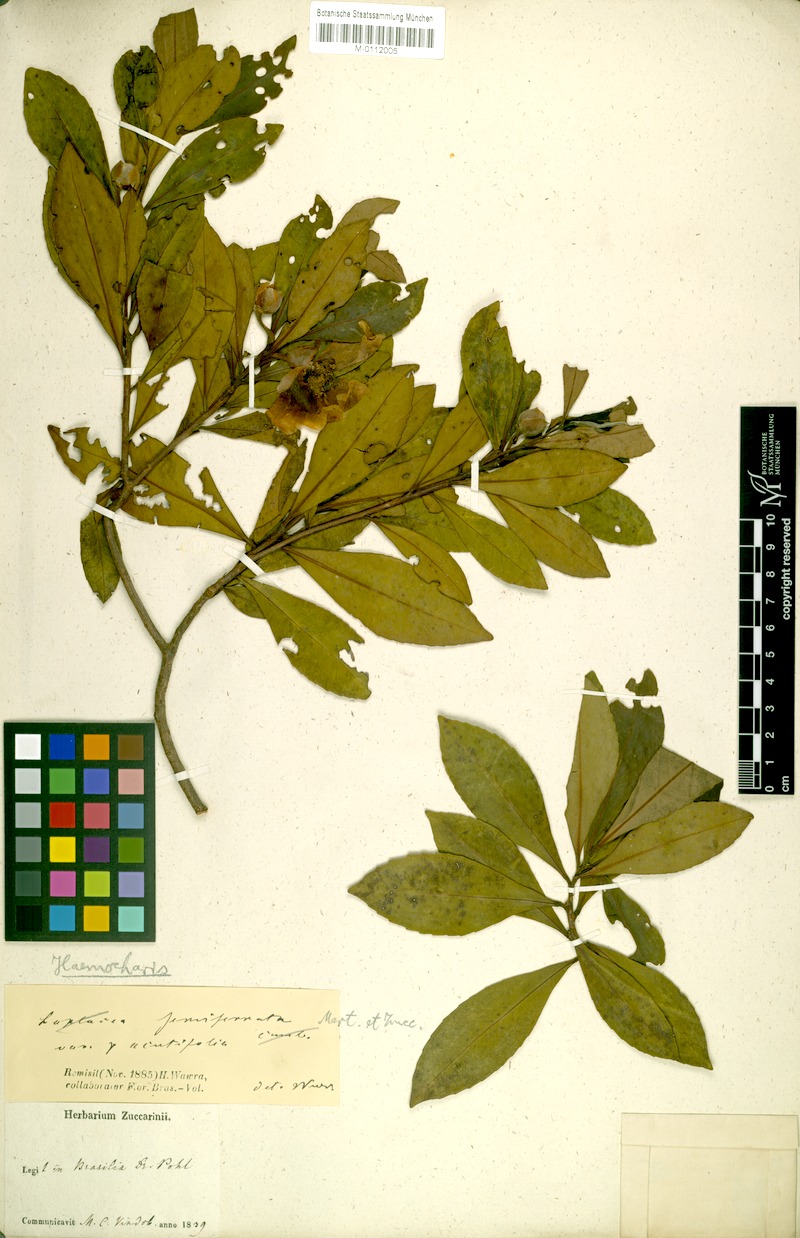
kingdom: Plantae
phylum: Tracheophyta
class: Magnoliopsida
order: Ericales
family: Theaceae
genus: Gordonia
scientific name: Gordonia acutifolia
